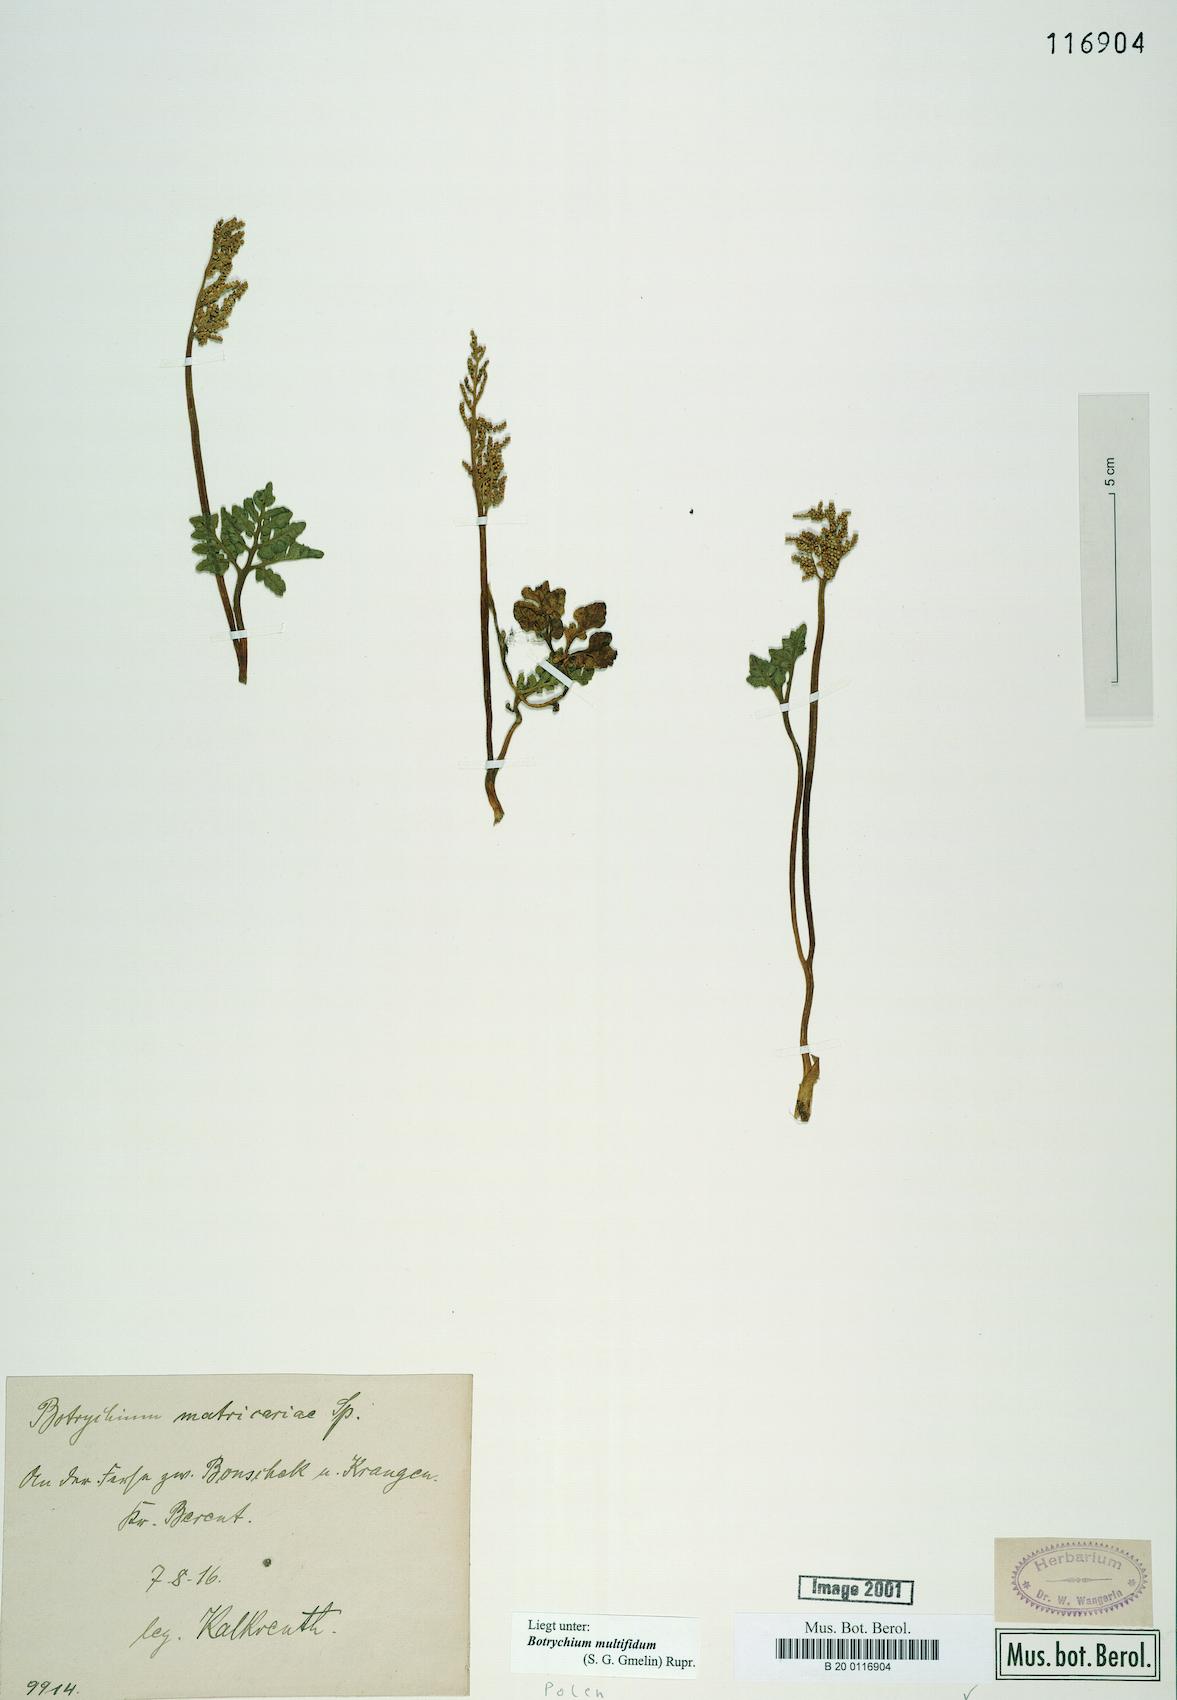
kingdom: Plantae
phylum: Tracheophyta
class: Polypodiopsida
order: Ophioglossales
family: Ophioglossaceae
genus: Sceptridium
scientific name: Sceptridium multifidum
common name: Leathery grape fern
